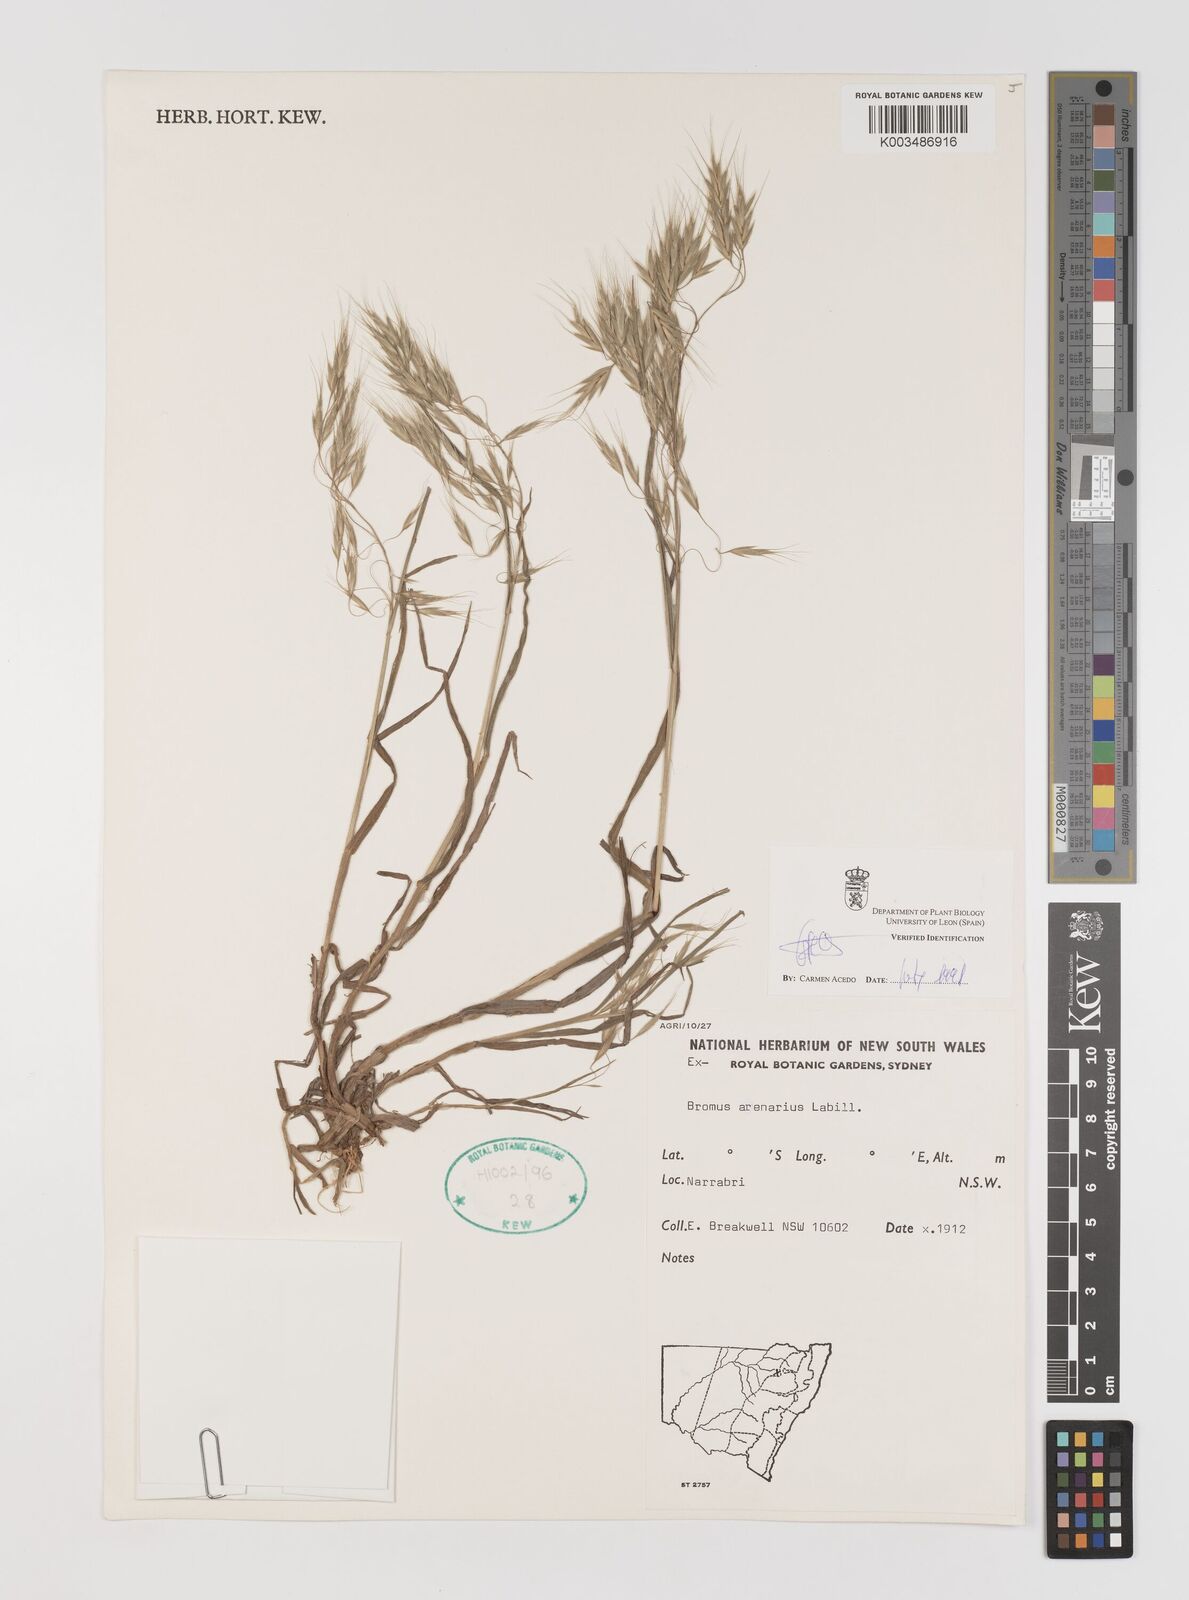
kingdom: Plantae
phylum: Tracheophyta
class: Liliopsida
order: Poales
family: Poaceae
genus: Bromus
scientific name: Bromus arenarius
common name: Australian brome
